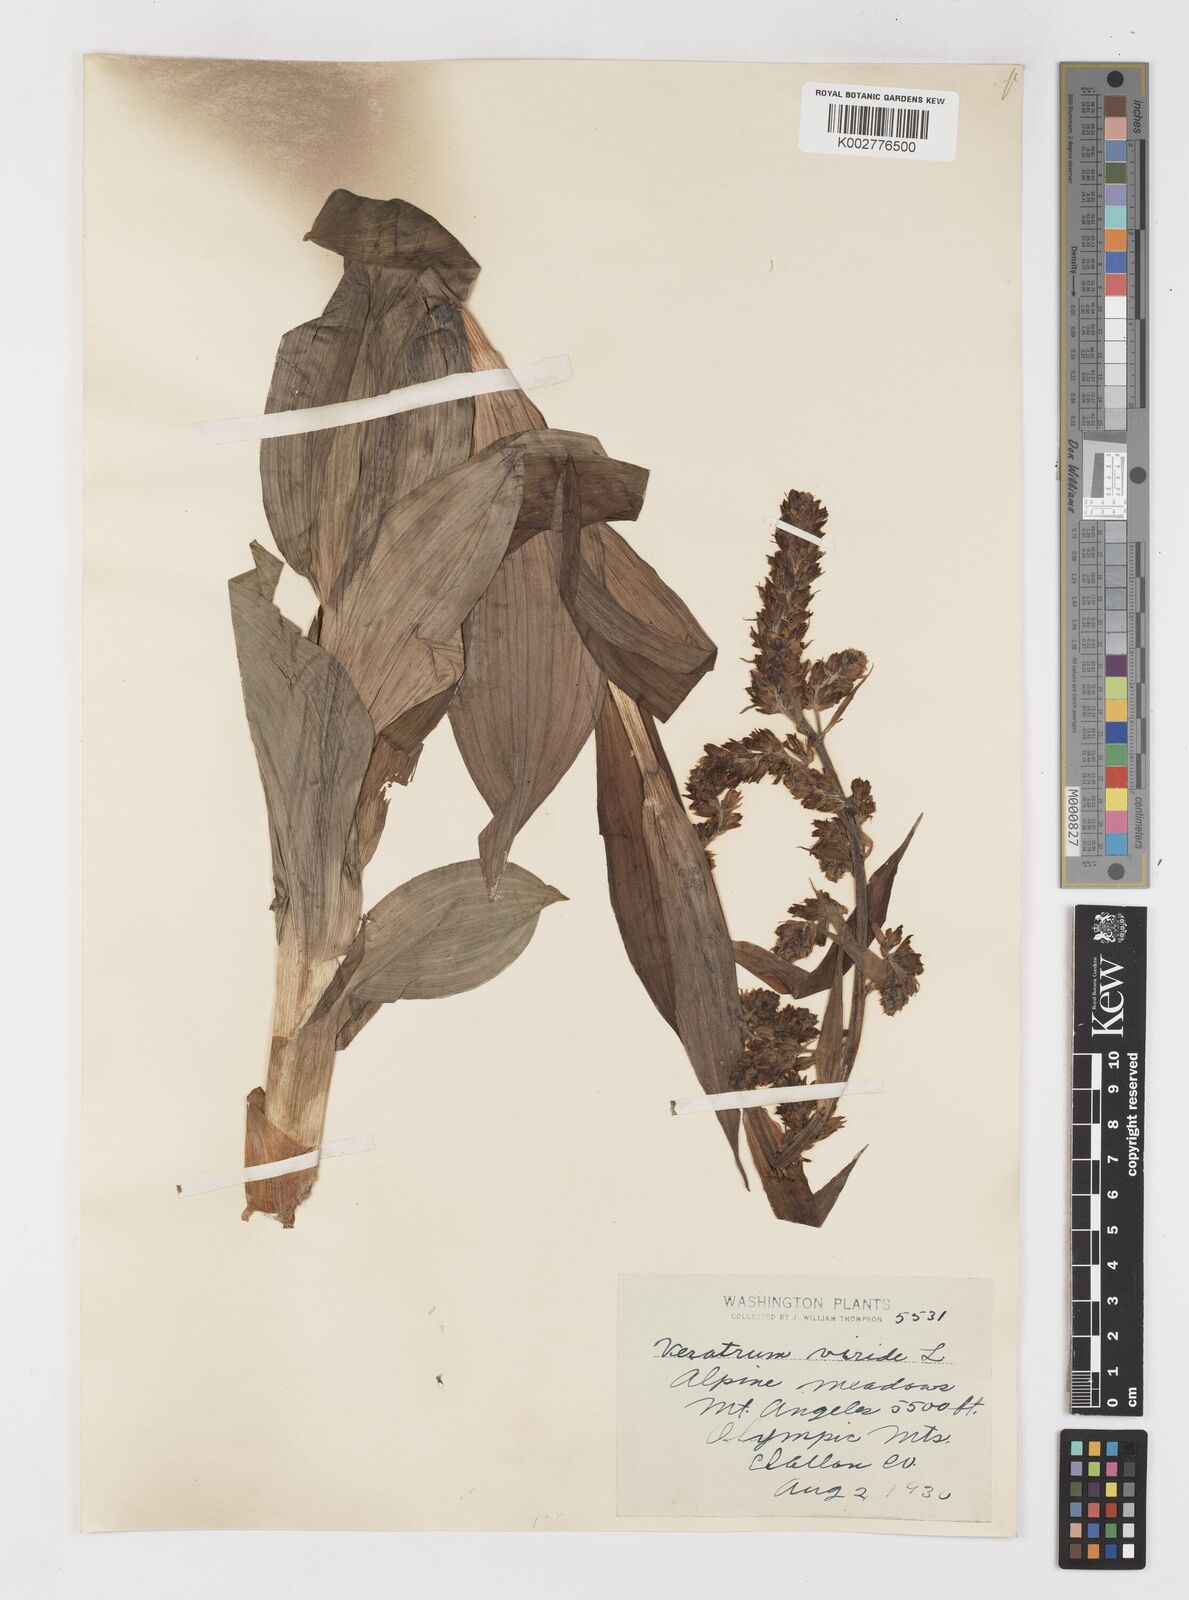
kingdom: Plantae
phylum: Tracheophyta
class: Liliopsida
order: Liliales
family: Melanthiaceae
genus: Veratrum
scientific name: Veratrum viride
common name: American false hellebore
